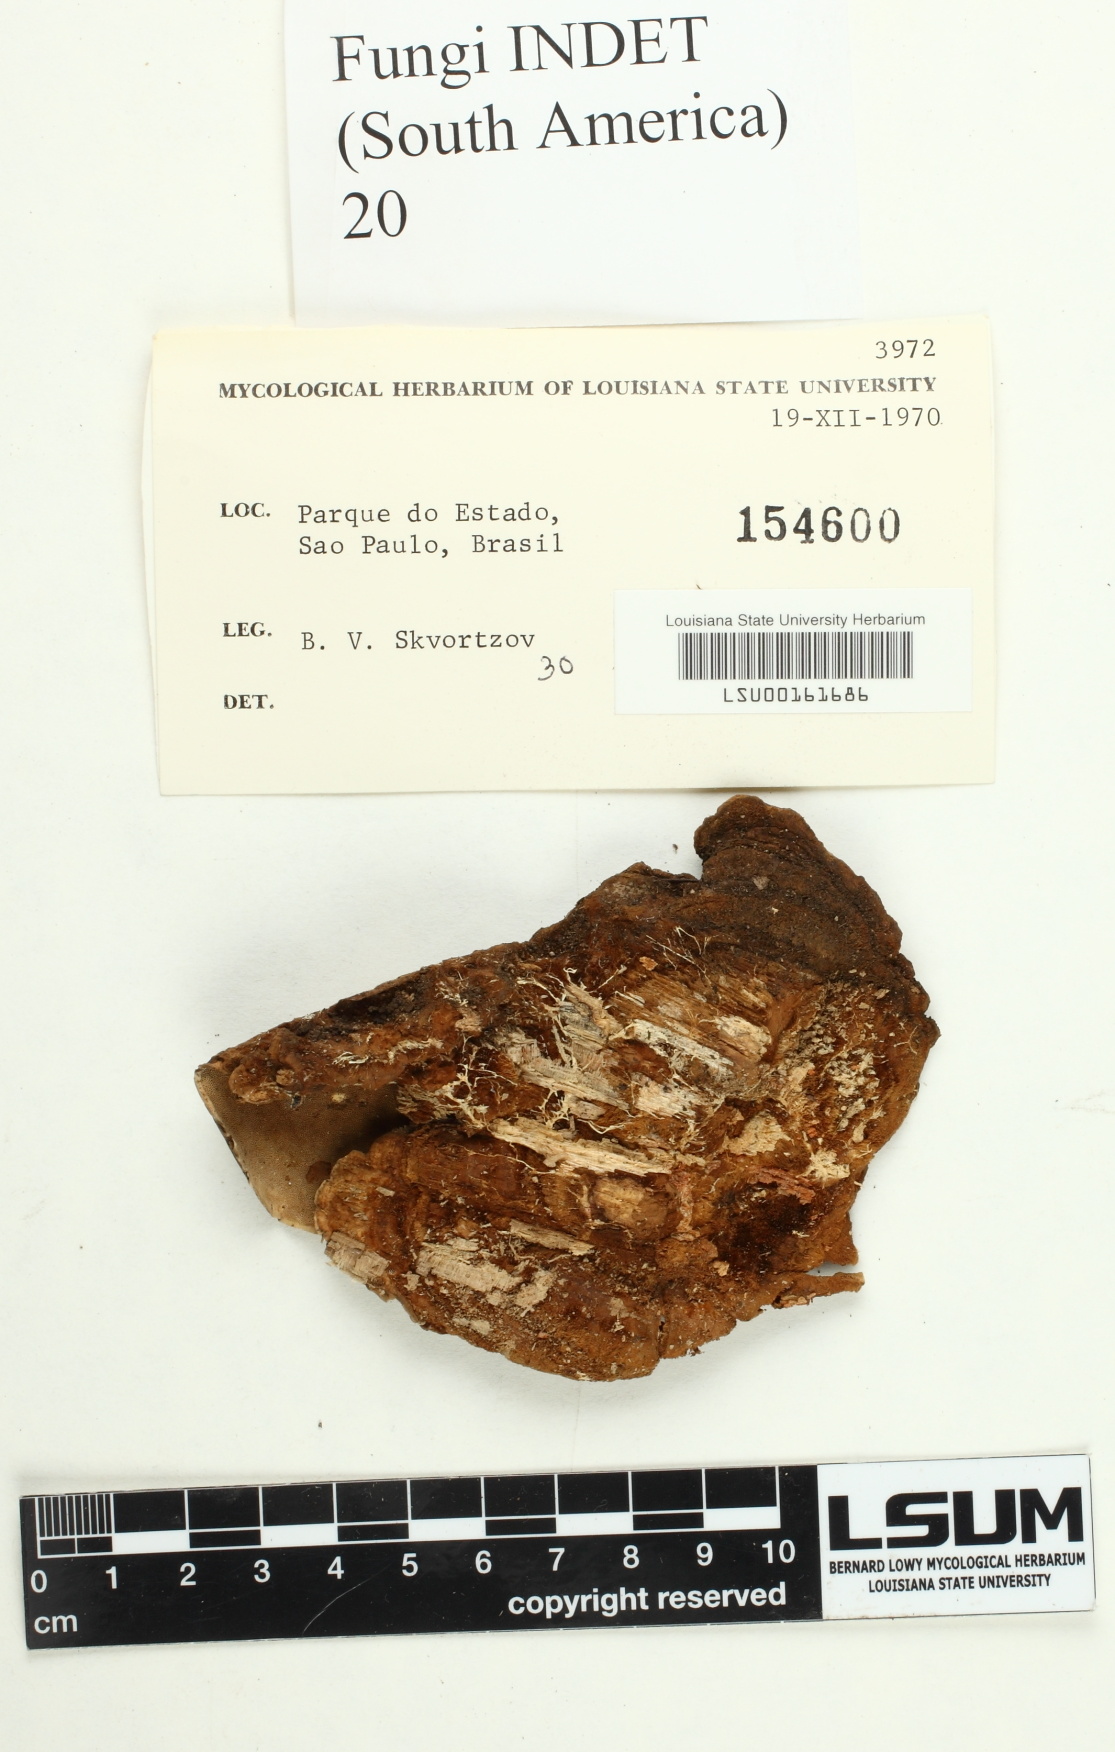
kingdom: Fungi
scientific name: Fungi
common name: Fungi
